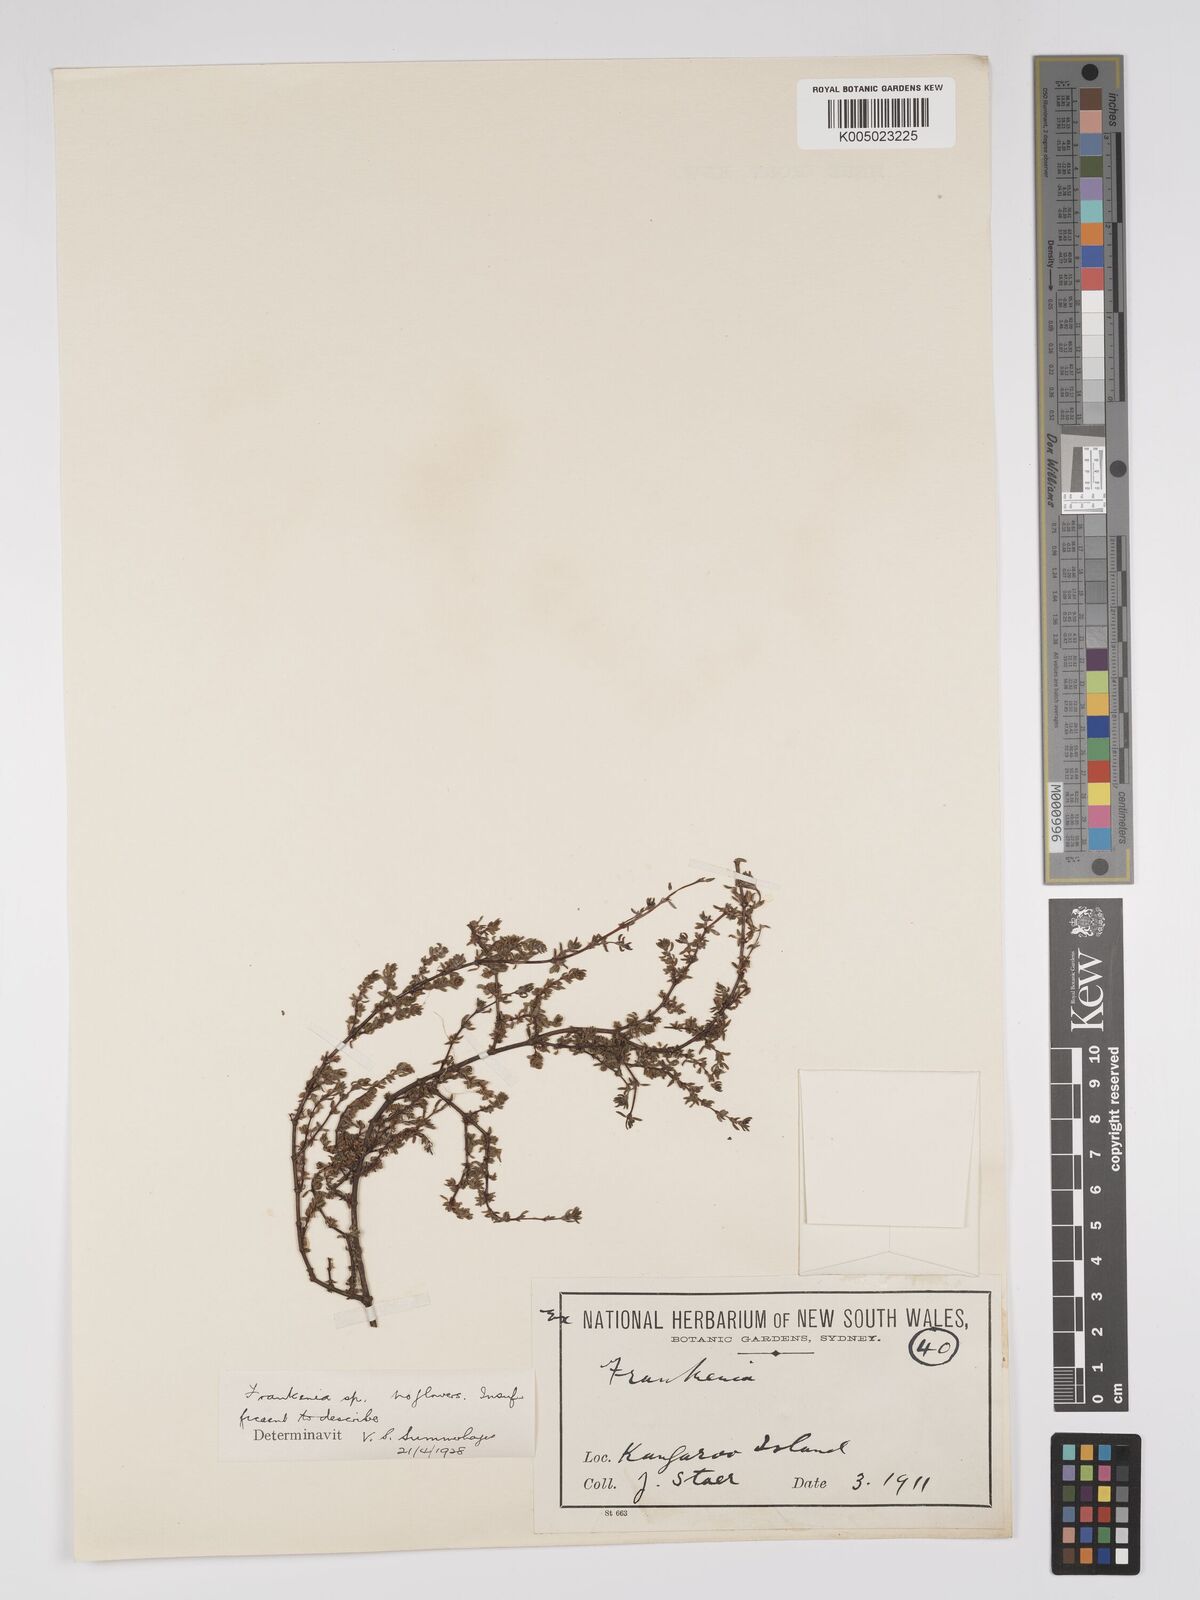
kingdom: Plantae
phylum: Tracheophyta
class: Magnoliopsida
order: Caryophyllales
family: Frankeniaceae
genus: Frankenia
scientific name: Frankenia
